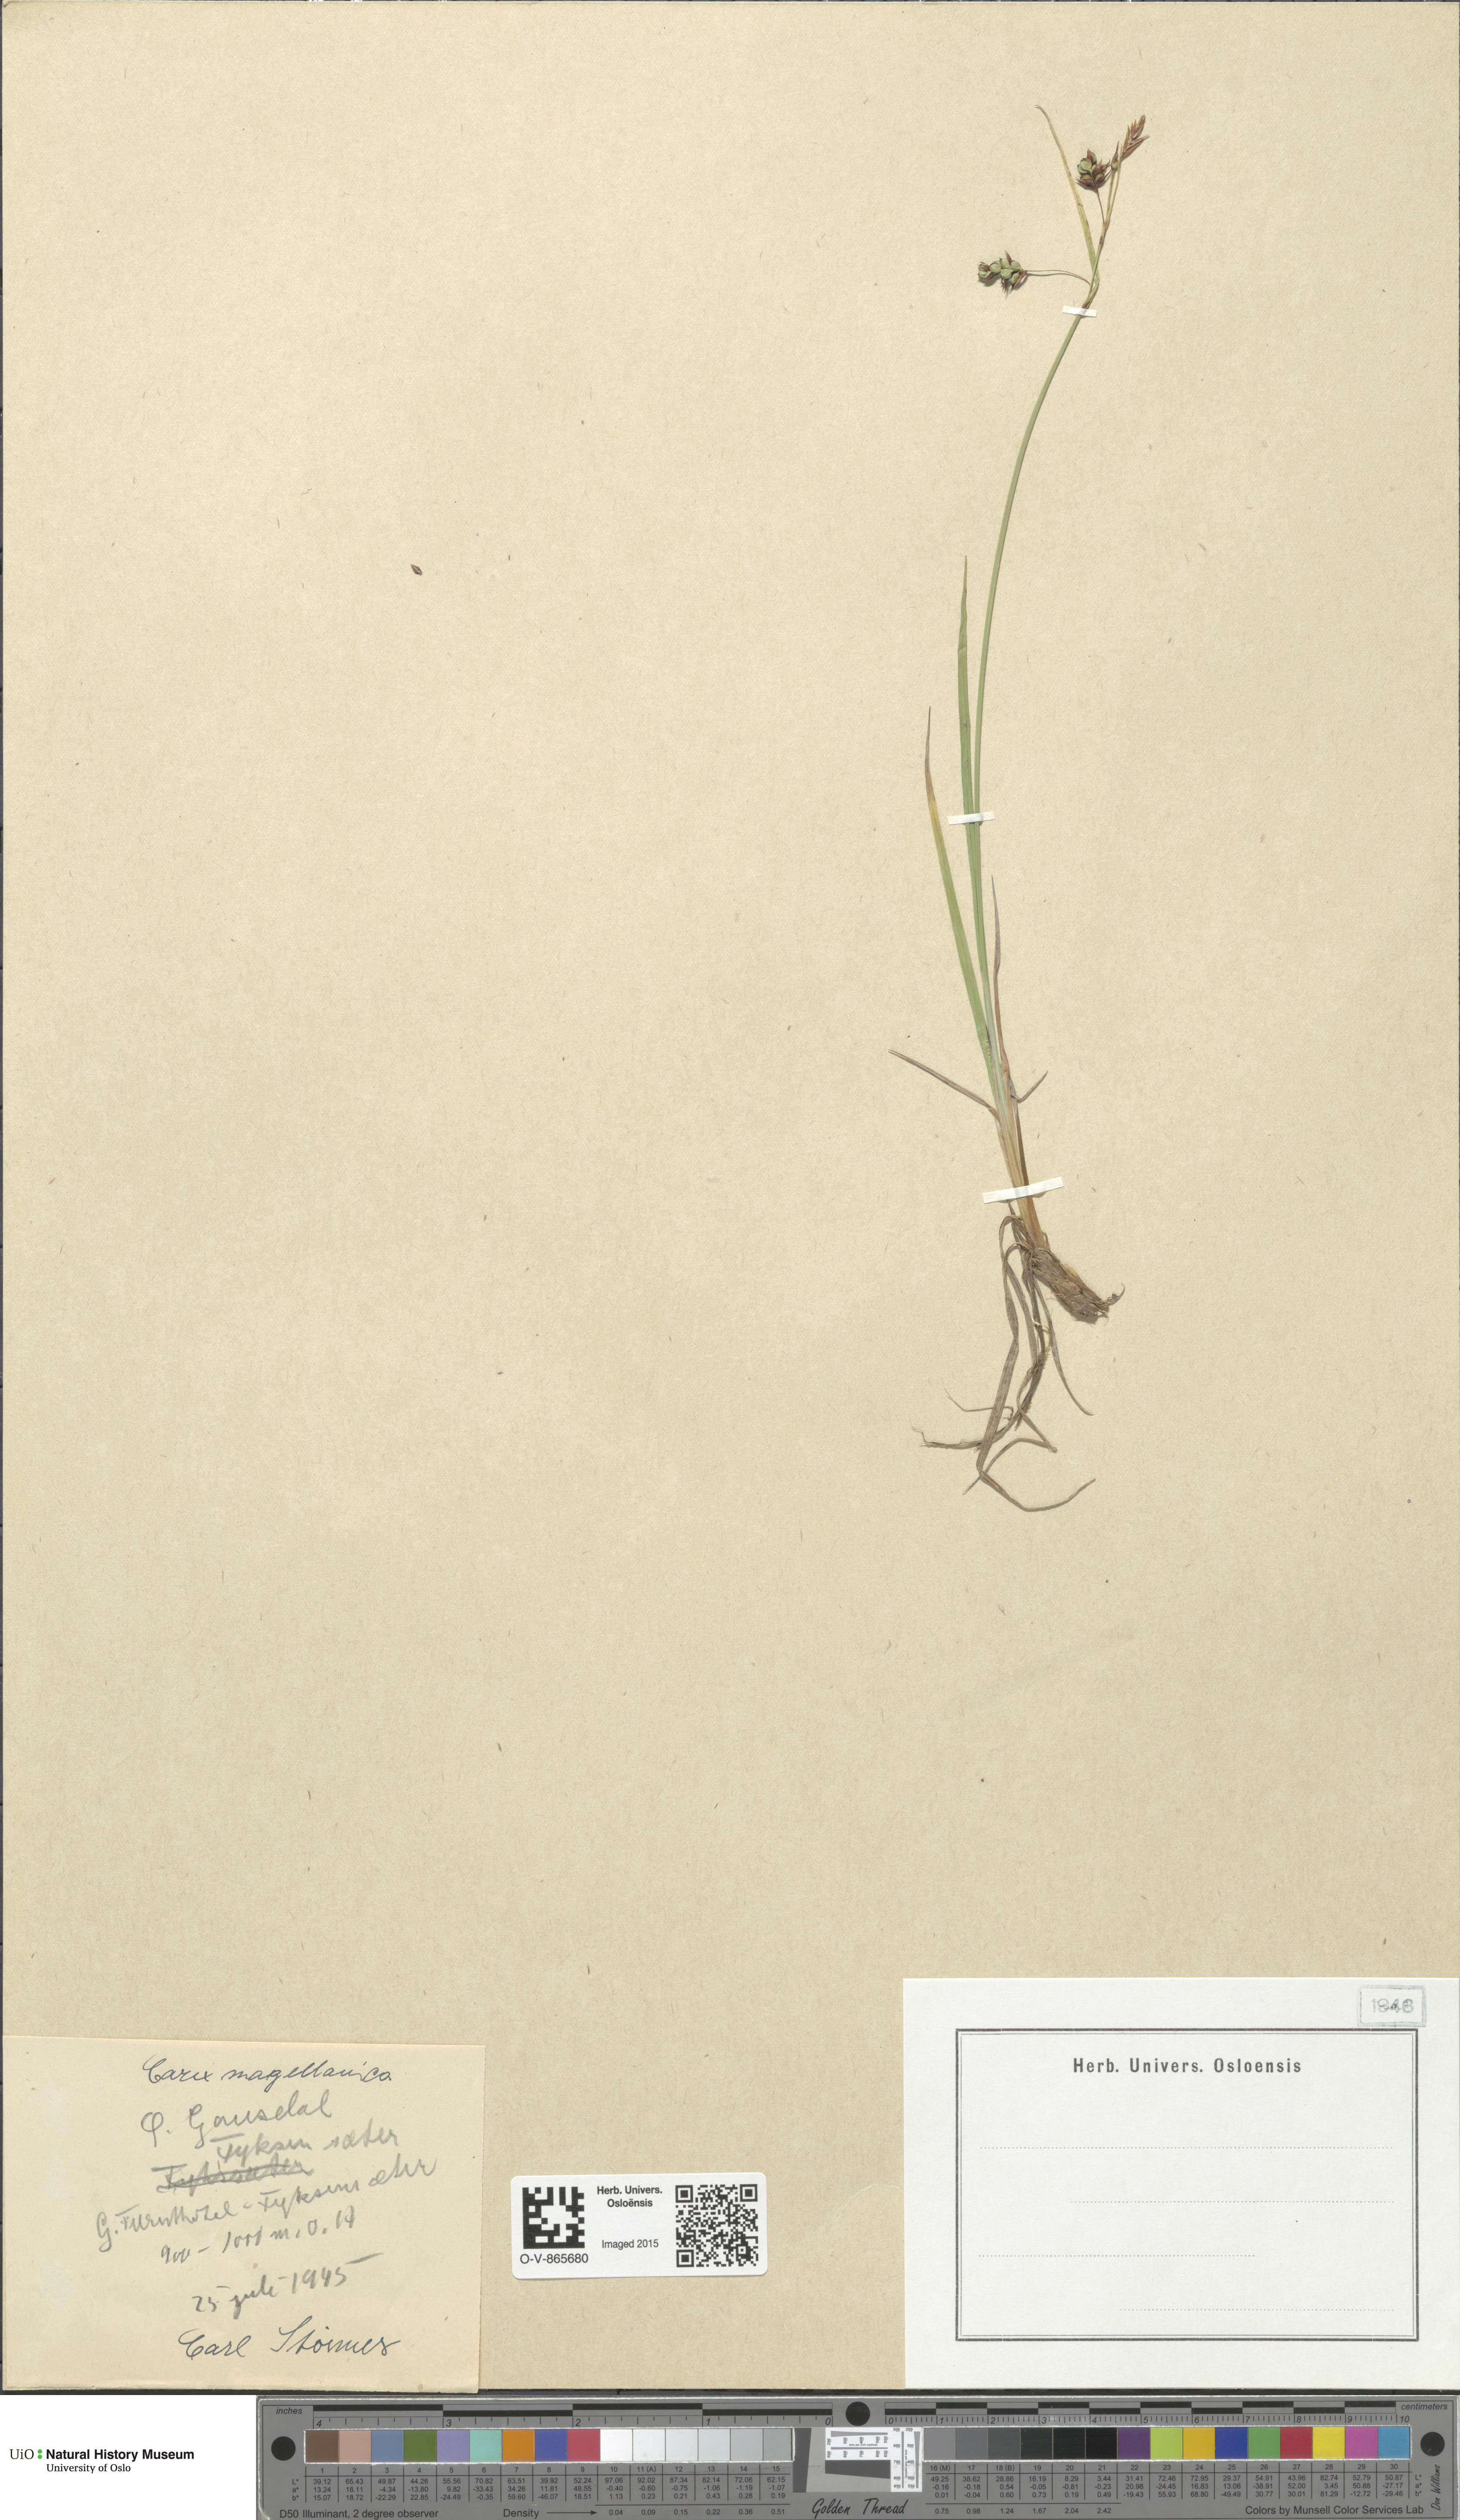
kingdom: Plantae
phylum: Tracheophyta
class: Liliopsida
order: Poales
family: Cyperaceae
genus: Carex
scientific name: Carex magellanica
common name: Bog sedge
